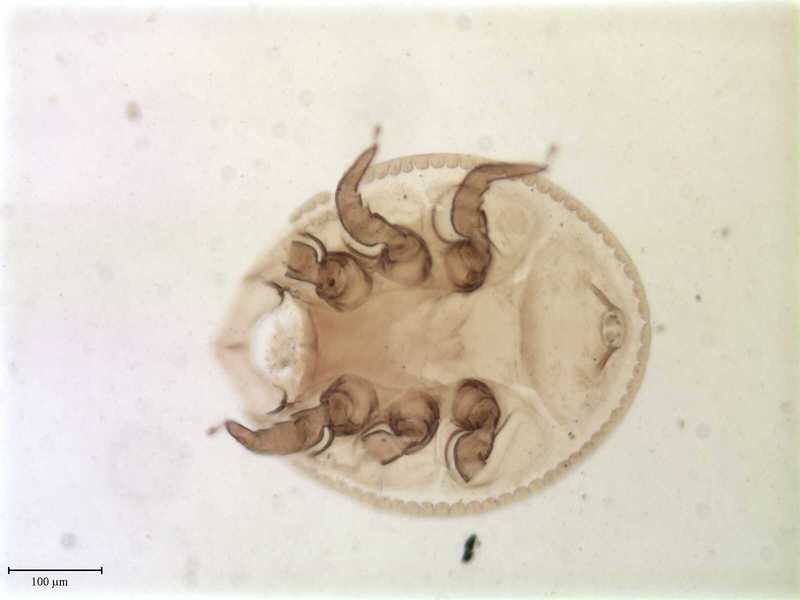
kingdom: Animalia
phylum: Arthropoda
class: Arachnida
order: Mesostigmata
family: Uropodidae
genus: Uropoda
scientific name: Uropoda
